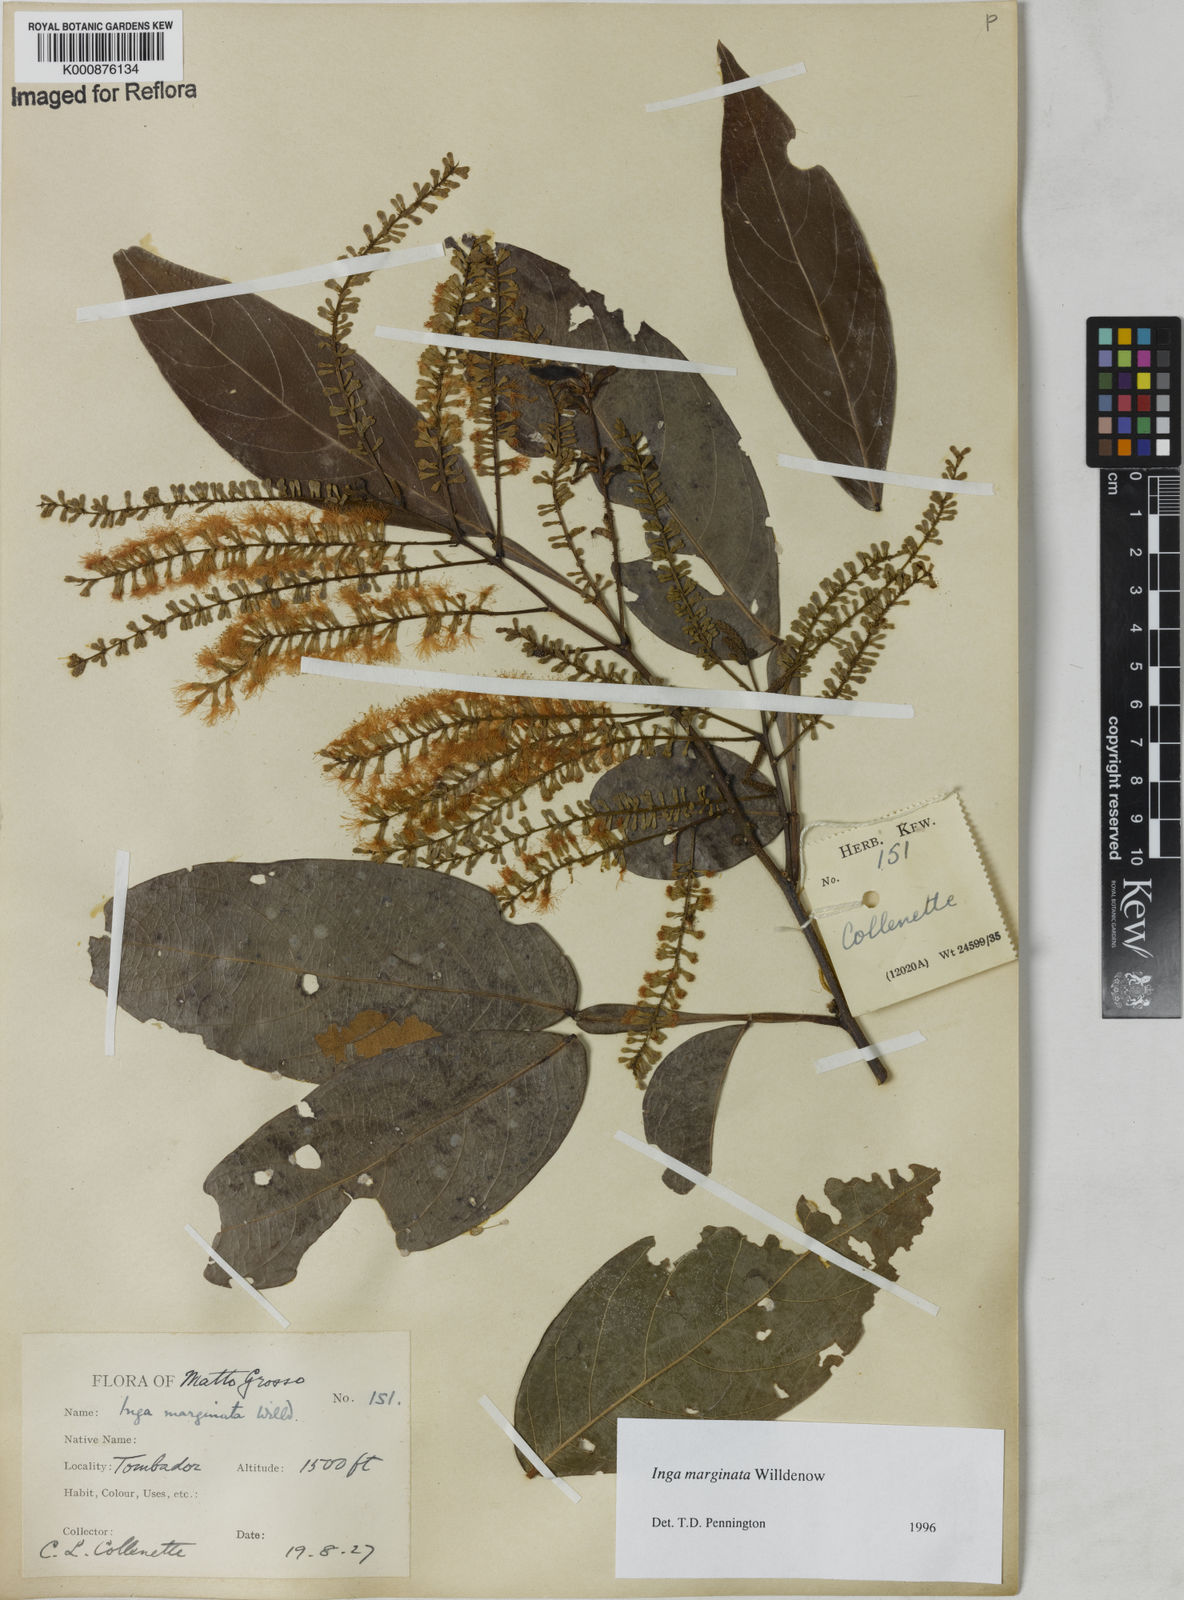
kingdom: Plantae
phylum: Tracheophyta
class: Magnoliopsida
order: Fabales
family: Fabaceae
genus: Inga
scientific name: Inga marginata
